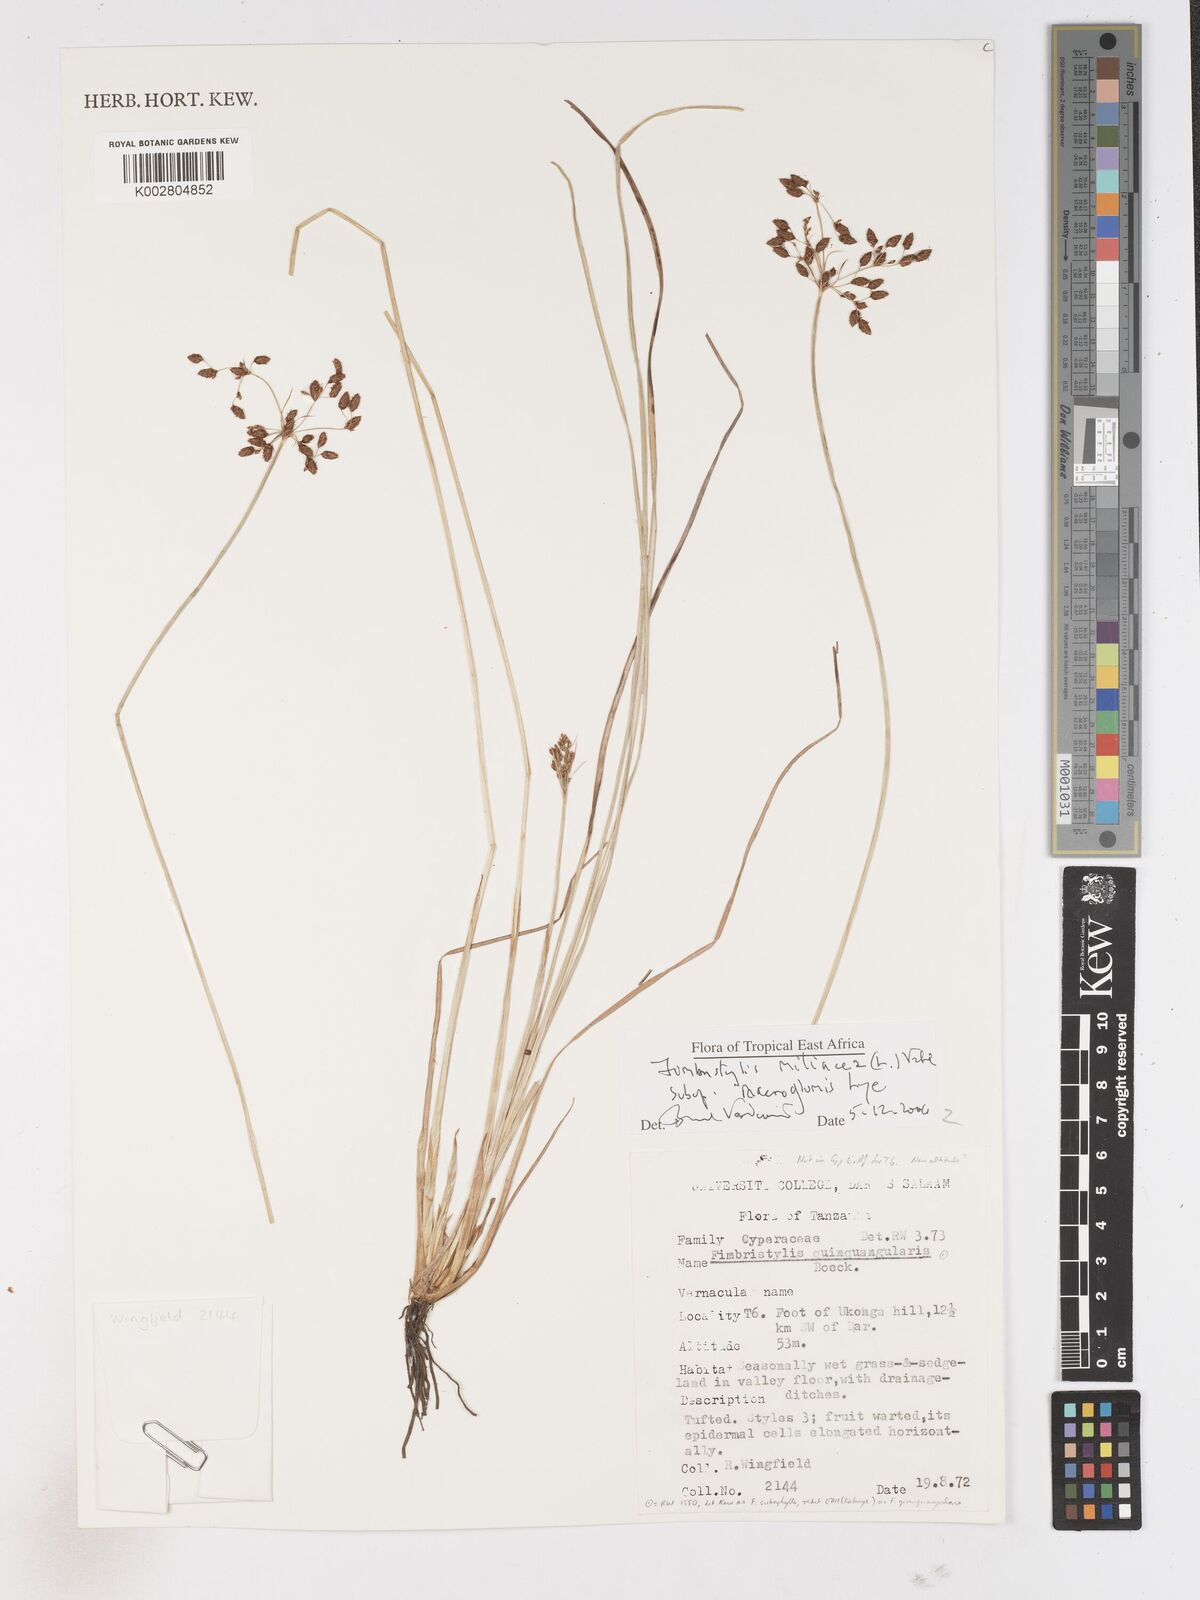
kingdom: Plantae
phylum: Tracheophyta
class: Liliopsida
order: Poales
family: Cyperaceae
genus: Fimbristylis
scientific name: Fimbristylis quinquangularis
